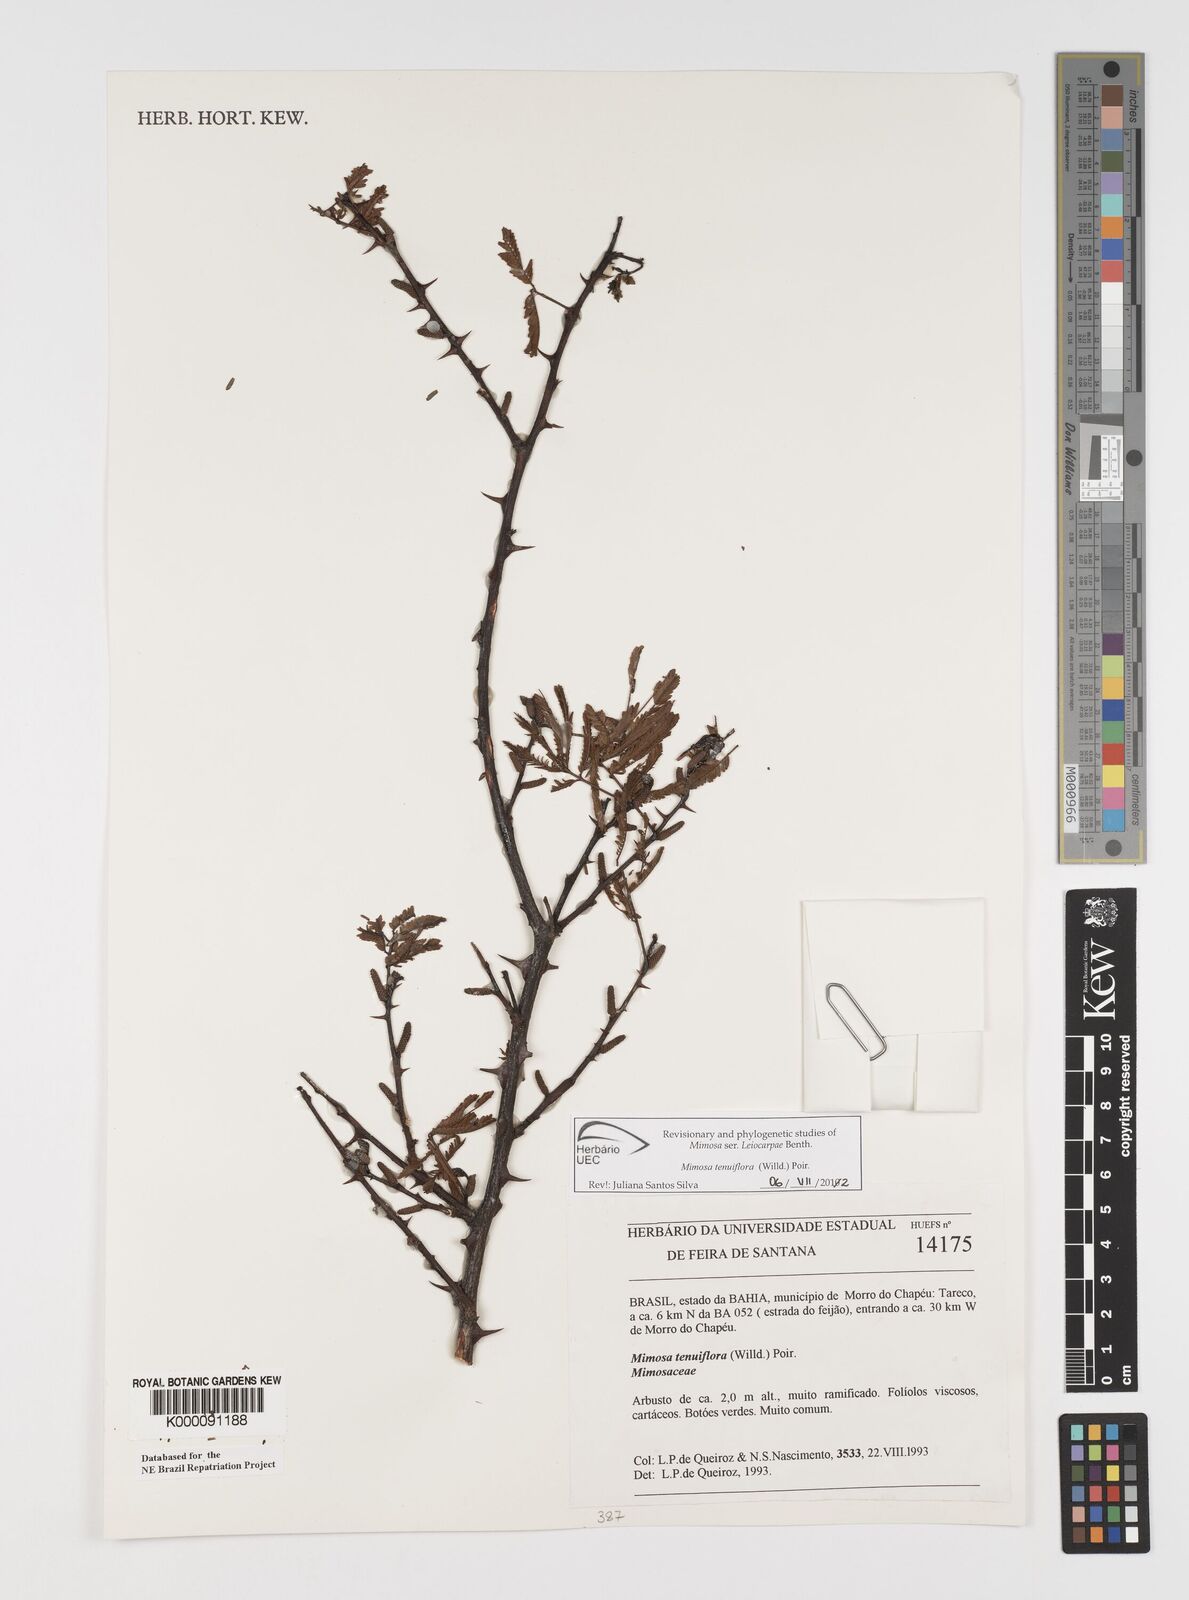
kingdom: Plantae
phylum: Tracheophyta
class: Magnoliopsida
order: Fabales
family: Fabaceae
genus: Mimosa
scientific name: Mimosa tenuiflora
